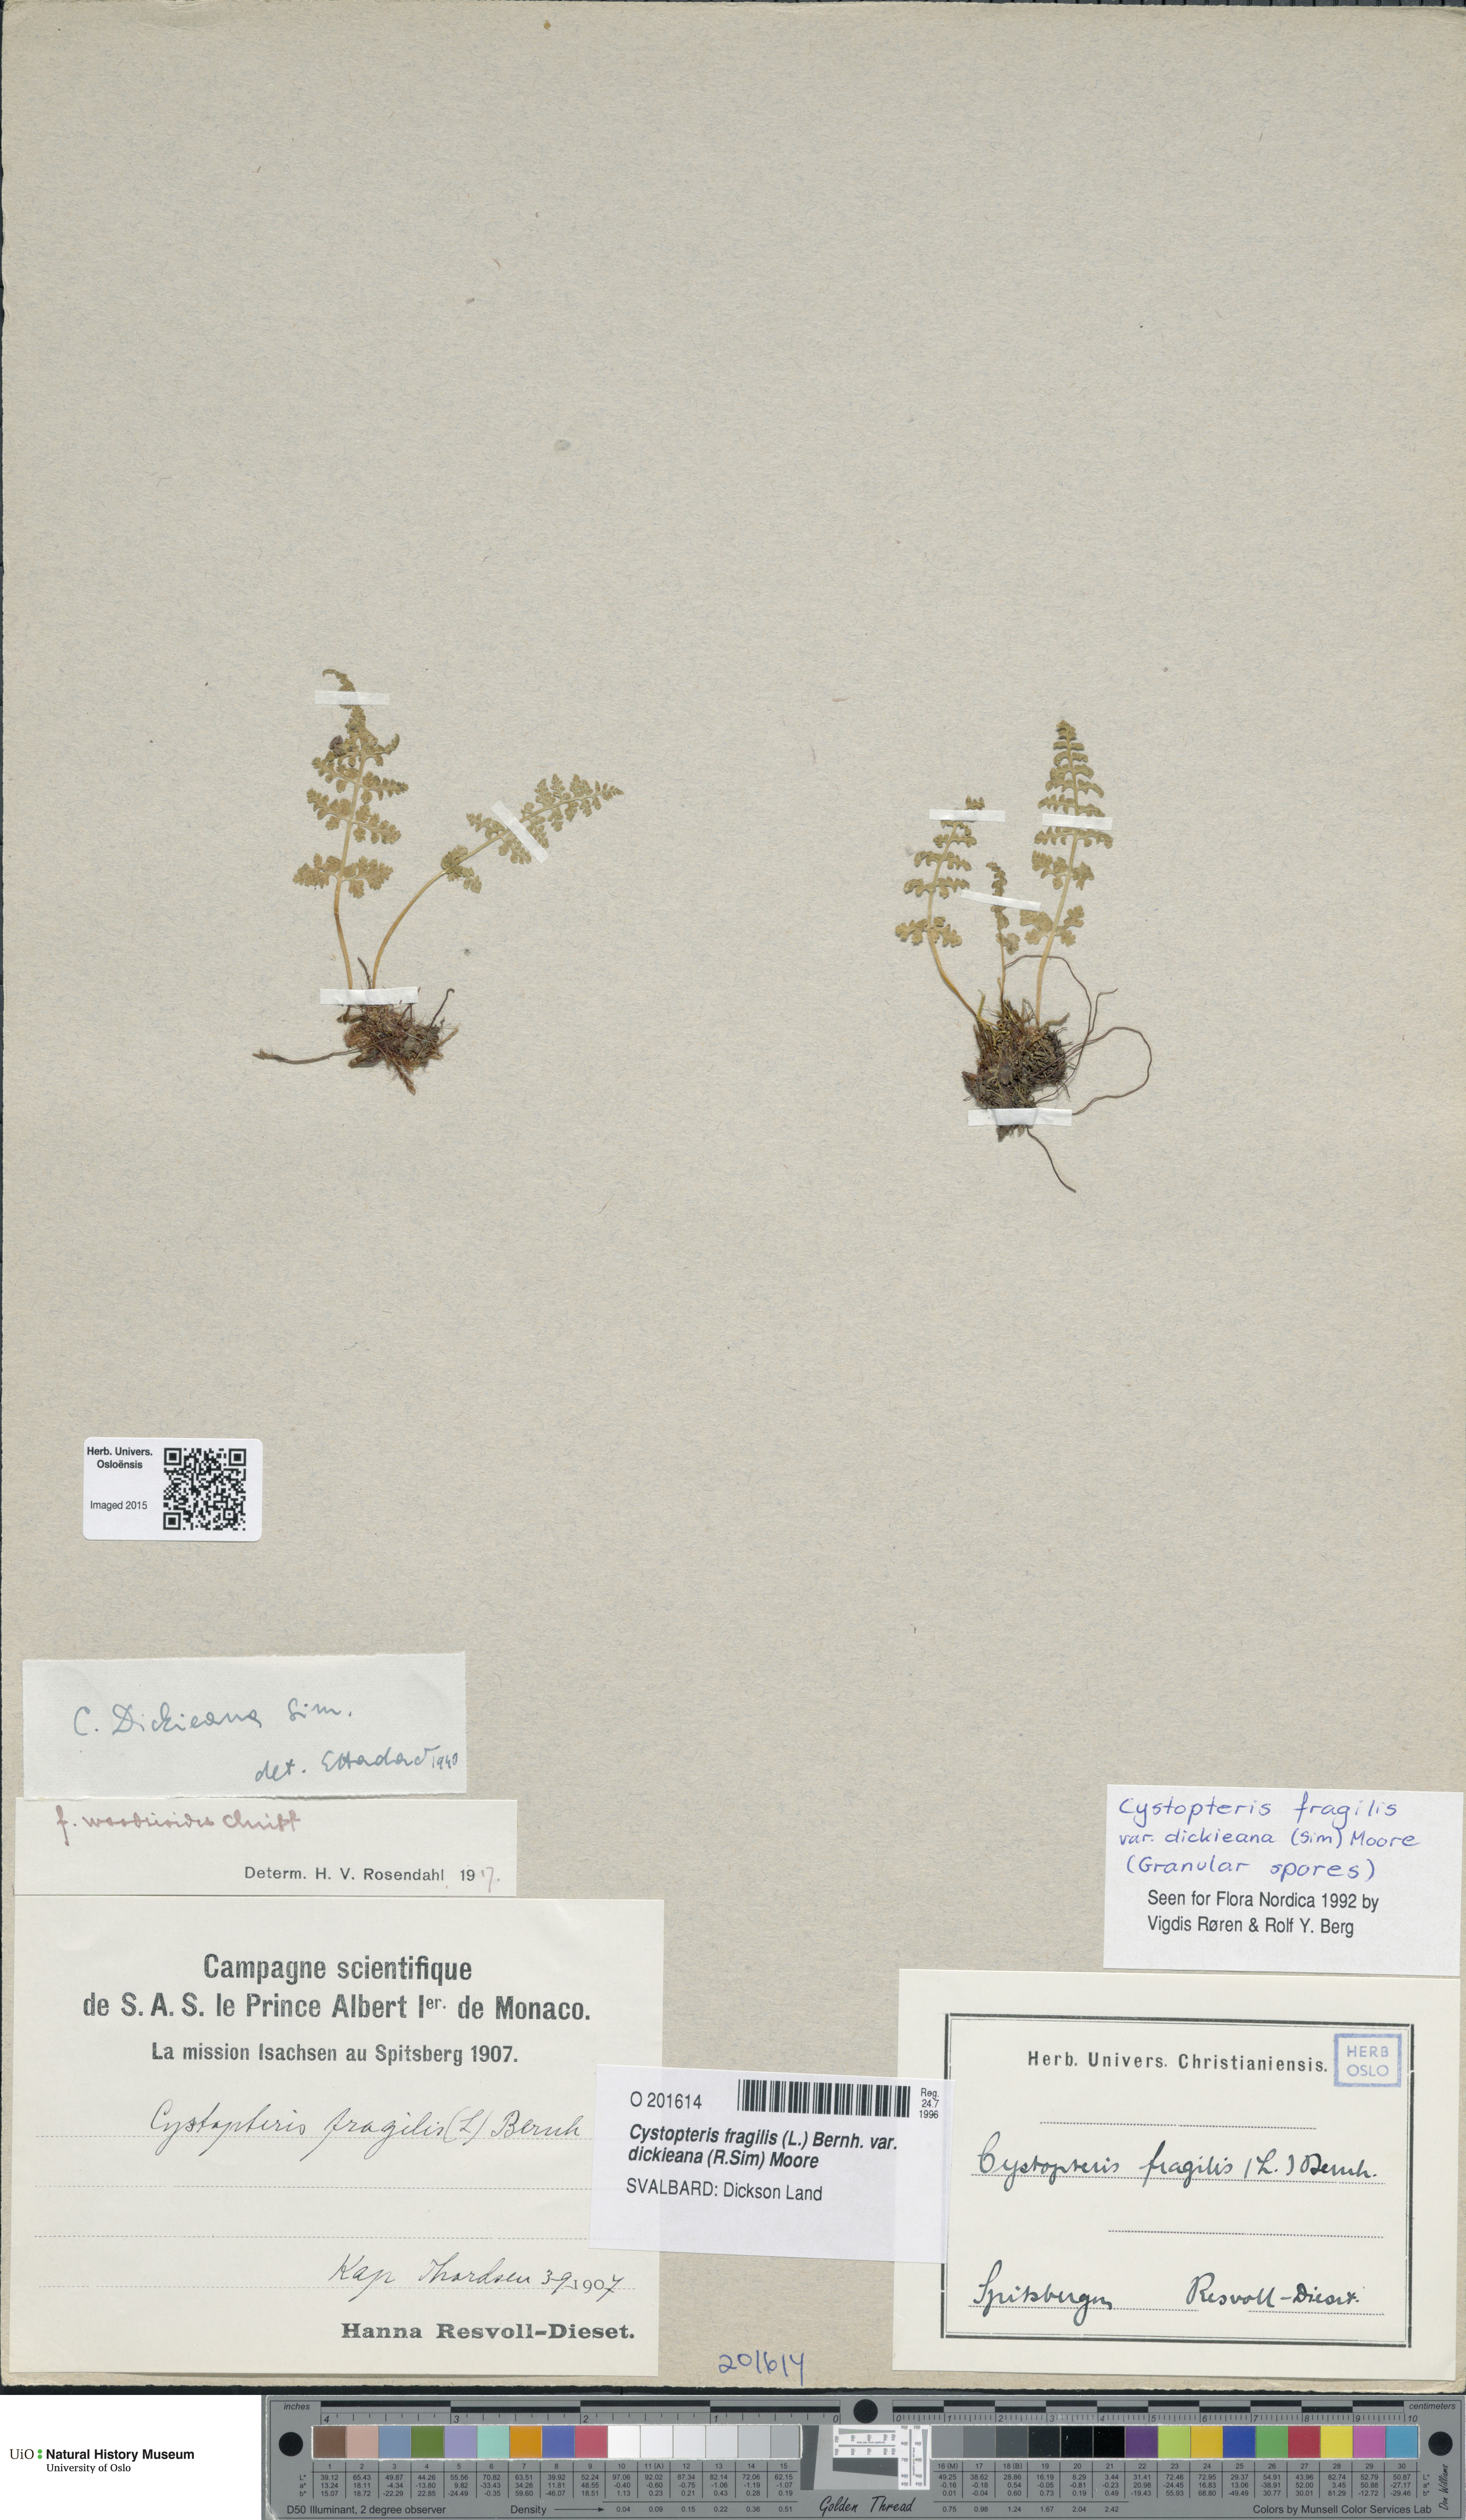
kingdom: Plantae
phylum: Tracheophyta
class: Polypodiopsida
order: Polypodiales
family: Cystopteridaceae
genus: Cystopteris
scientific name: Cystopteris dickieana
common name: Dickie's bladder-fern
